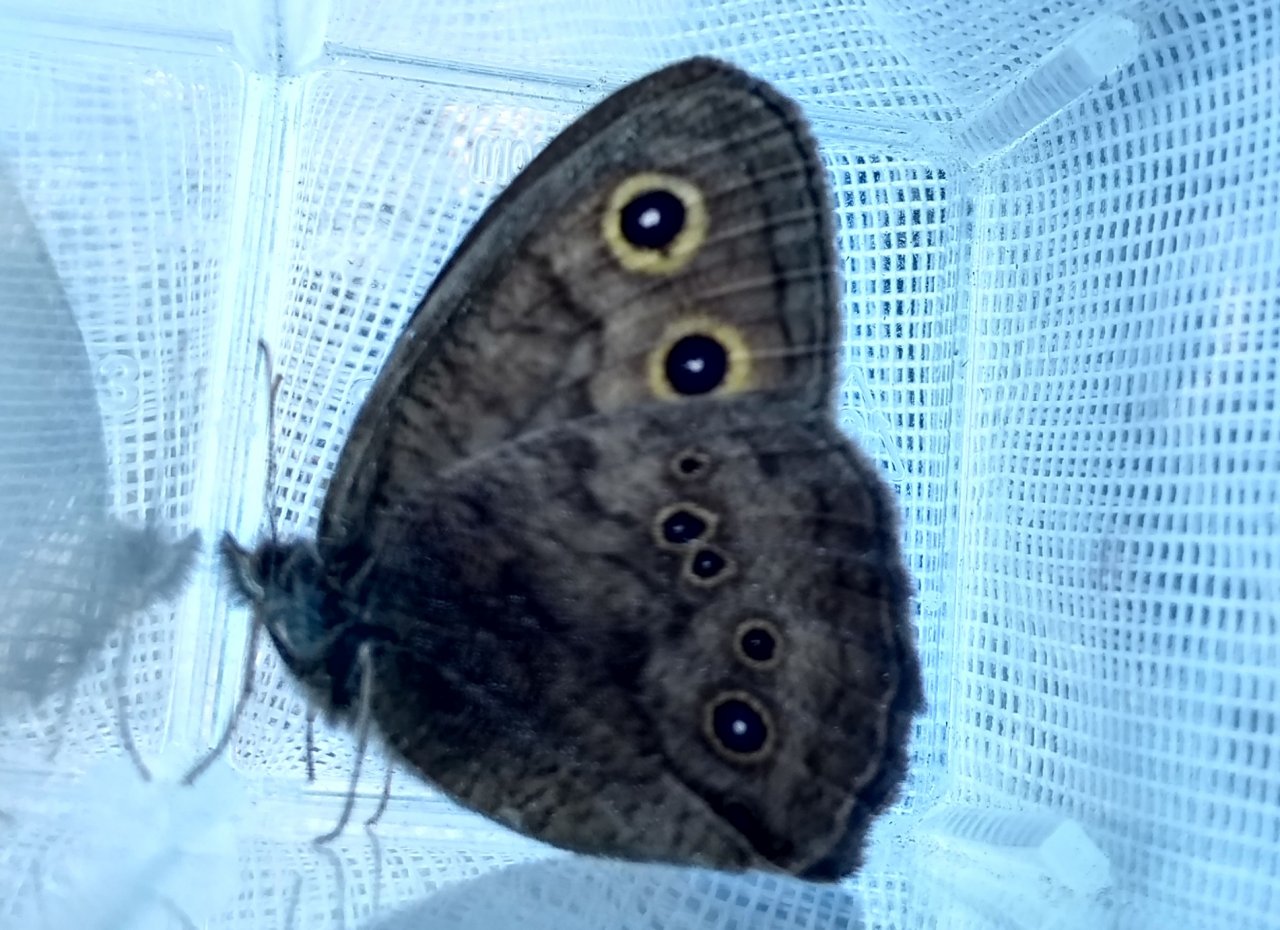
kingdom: Animalia
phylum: Arthropoda
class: Insecta
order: Lepidoptera
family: Nymphalidae
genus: Cercyonis
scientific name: Cercyonis pegala
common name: Common Wood-Nymph
